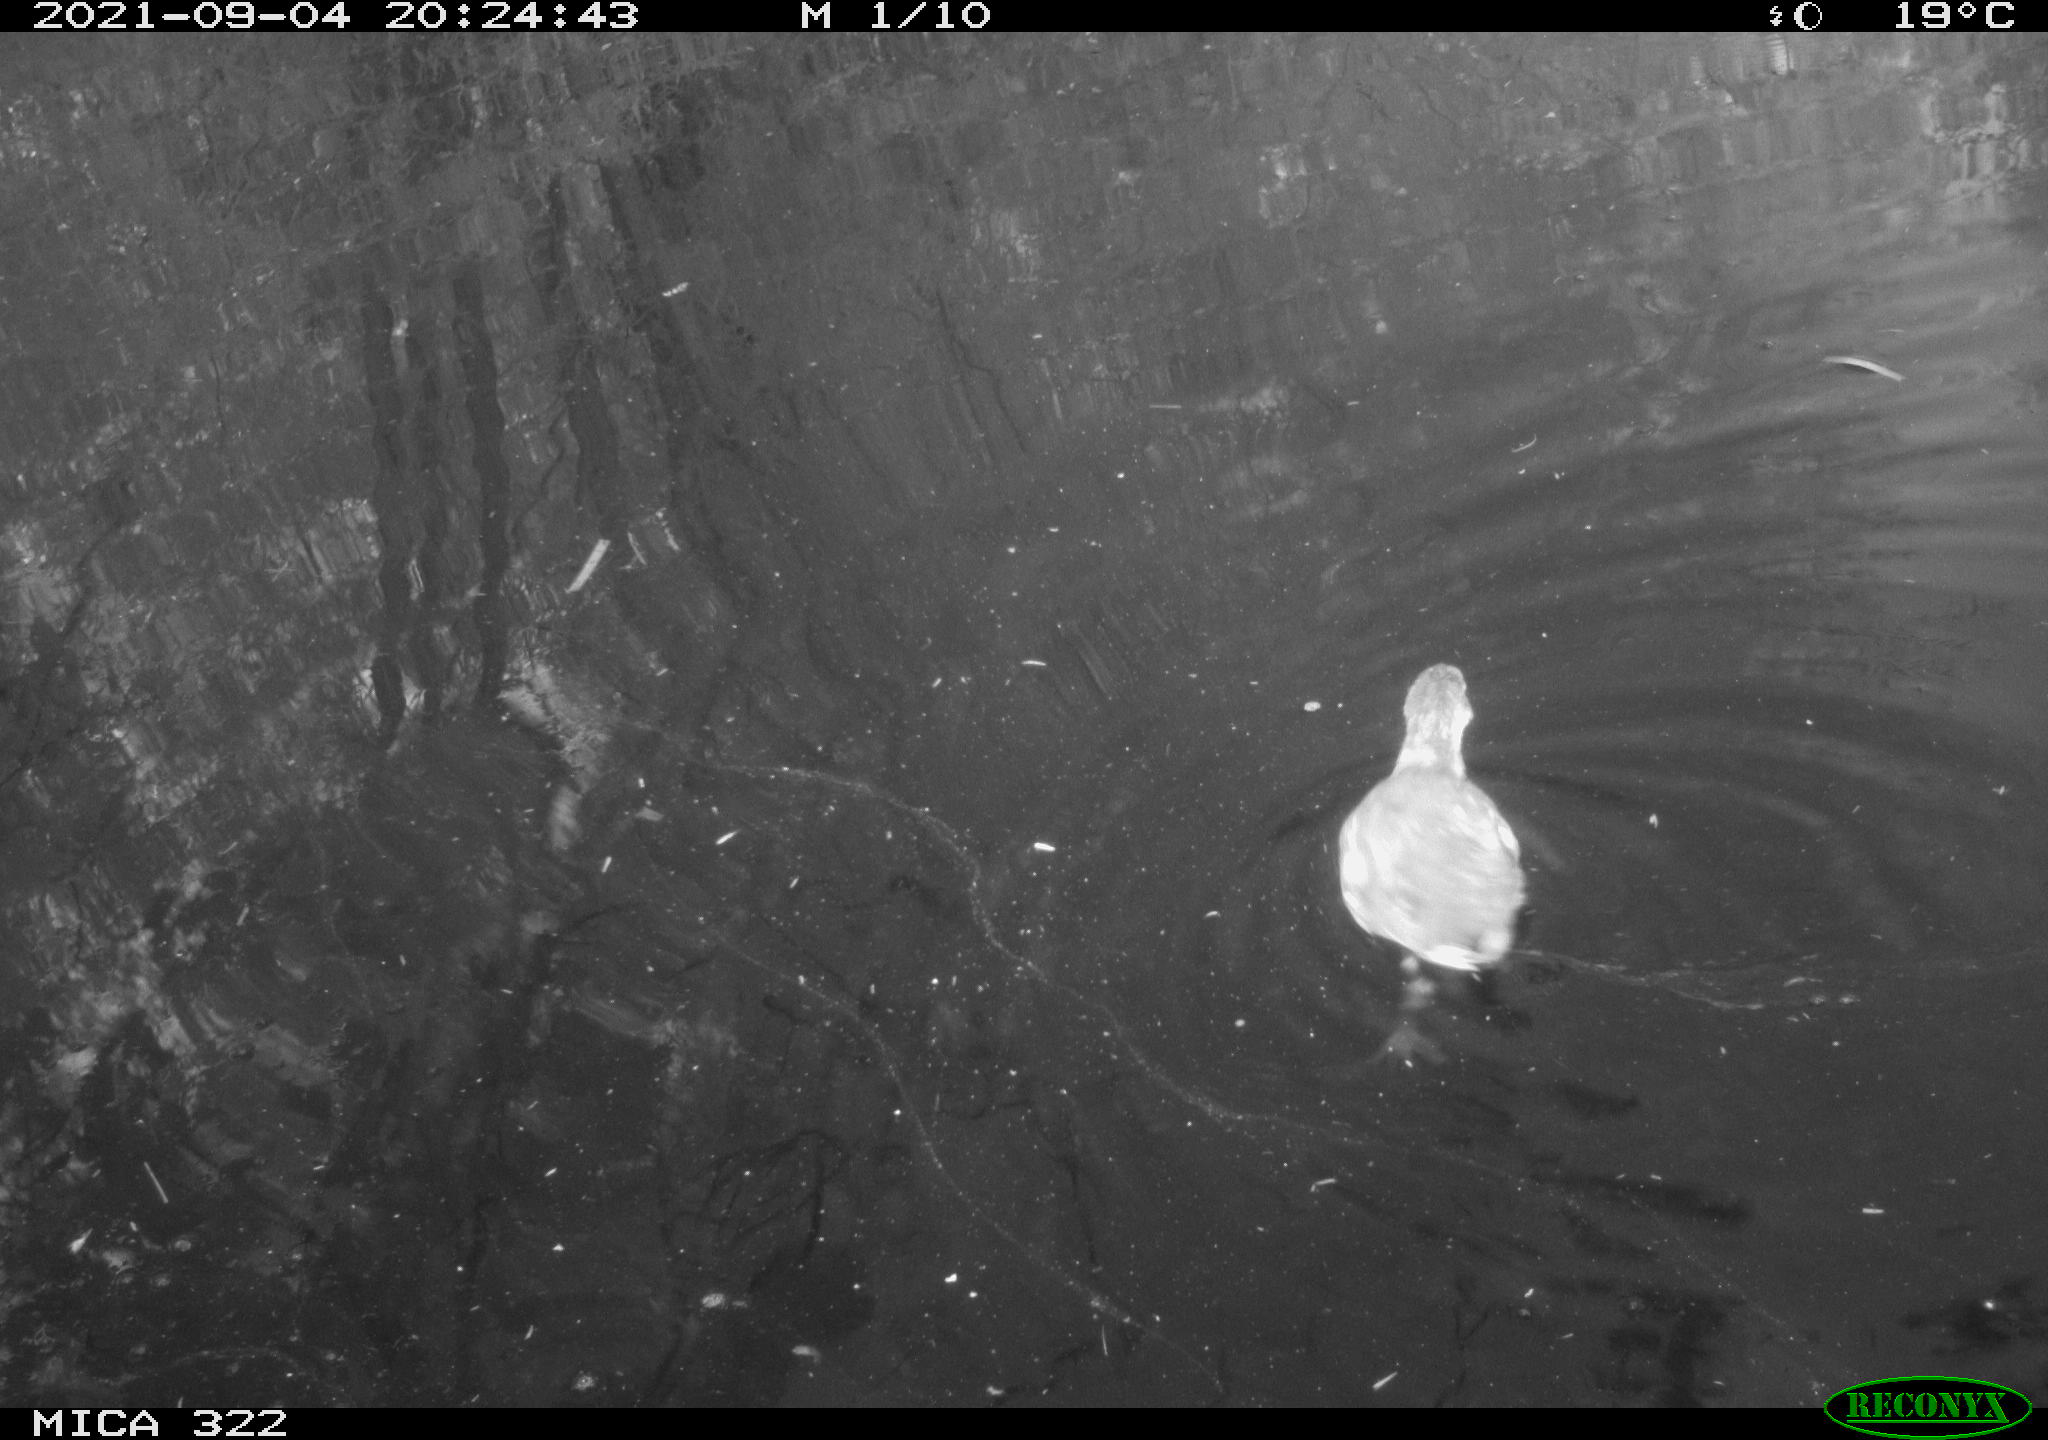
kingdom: Animalia
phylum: Chordata
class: Aves
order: Gruiformes
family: Rallidae
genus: Fulica
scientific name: Fulica atra
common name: Eurasian coot
